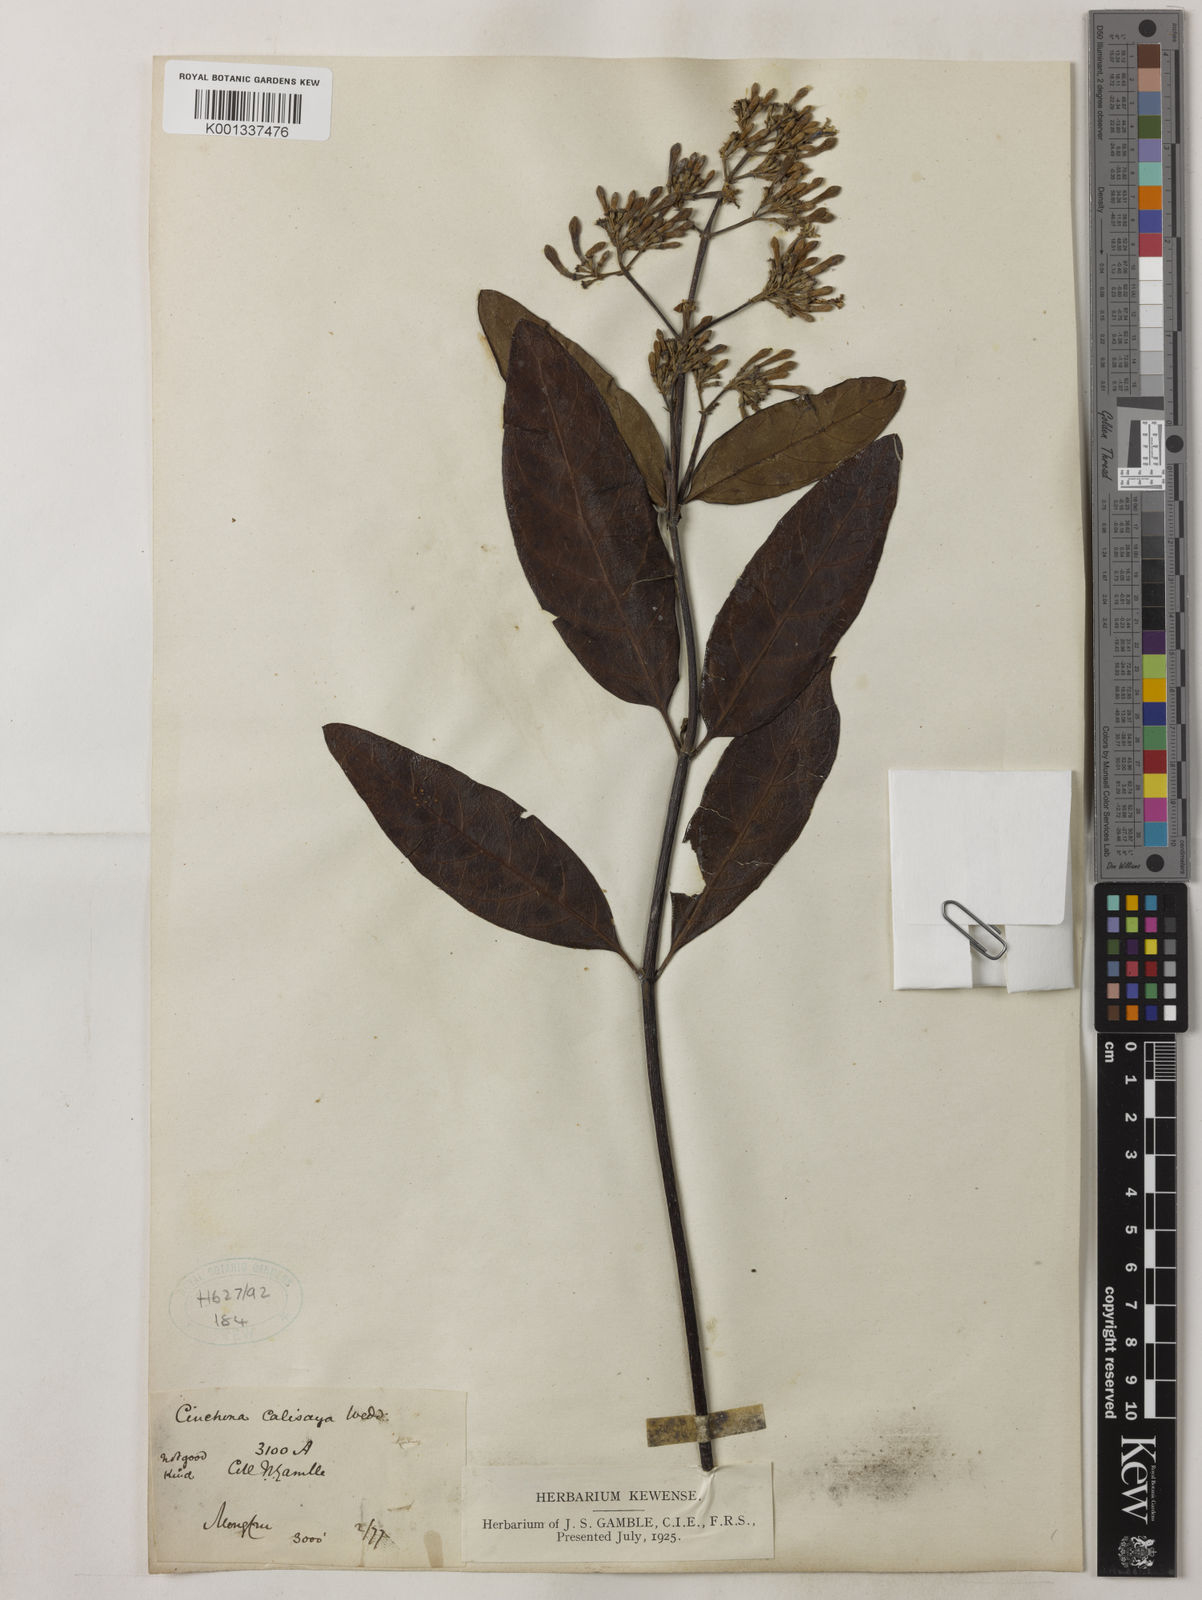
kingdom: Plantae
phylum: Tracheophyta
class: Magnoliopsida
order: Gentianales
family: Rubiaceae
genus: Cinchona
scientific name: Cinchona calisaya
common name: Ledgerbark
